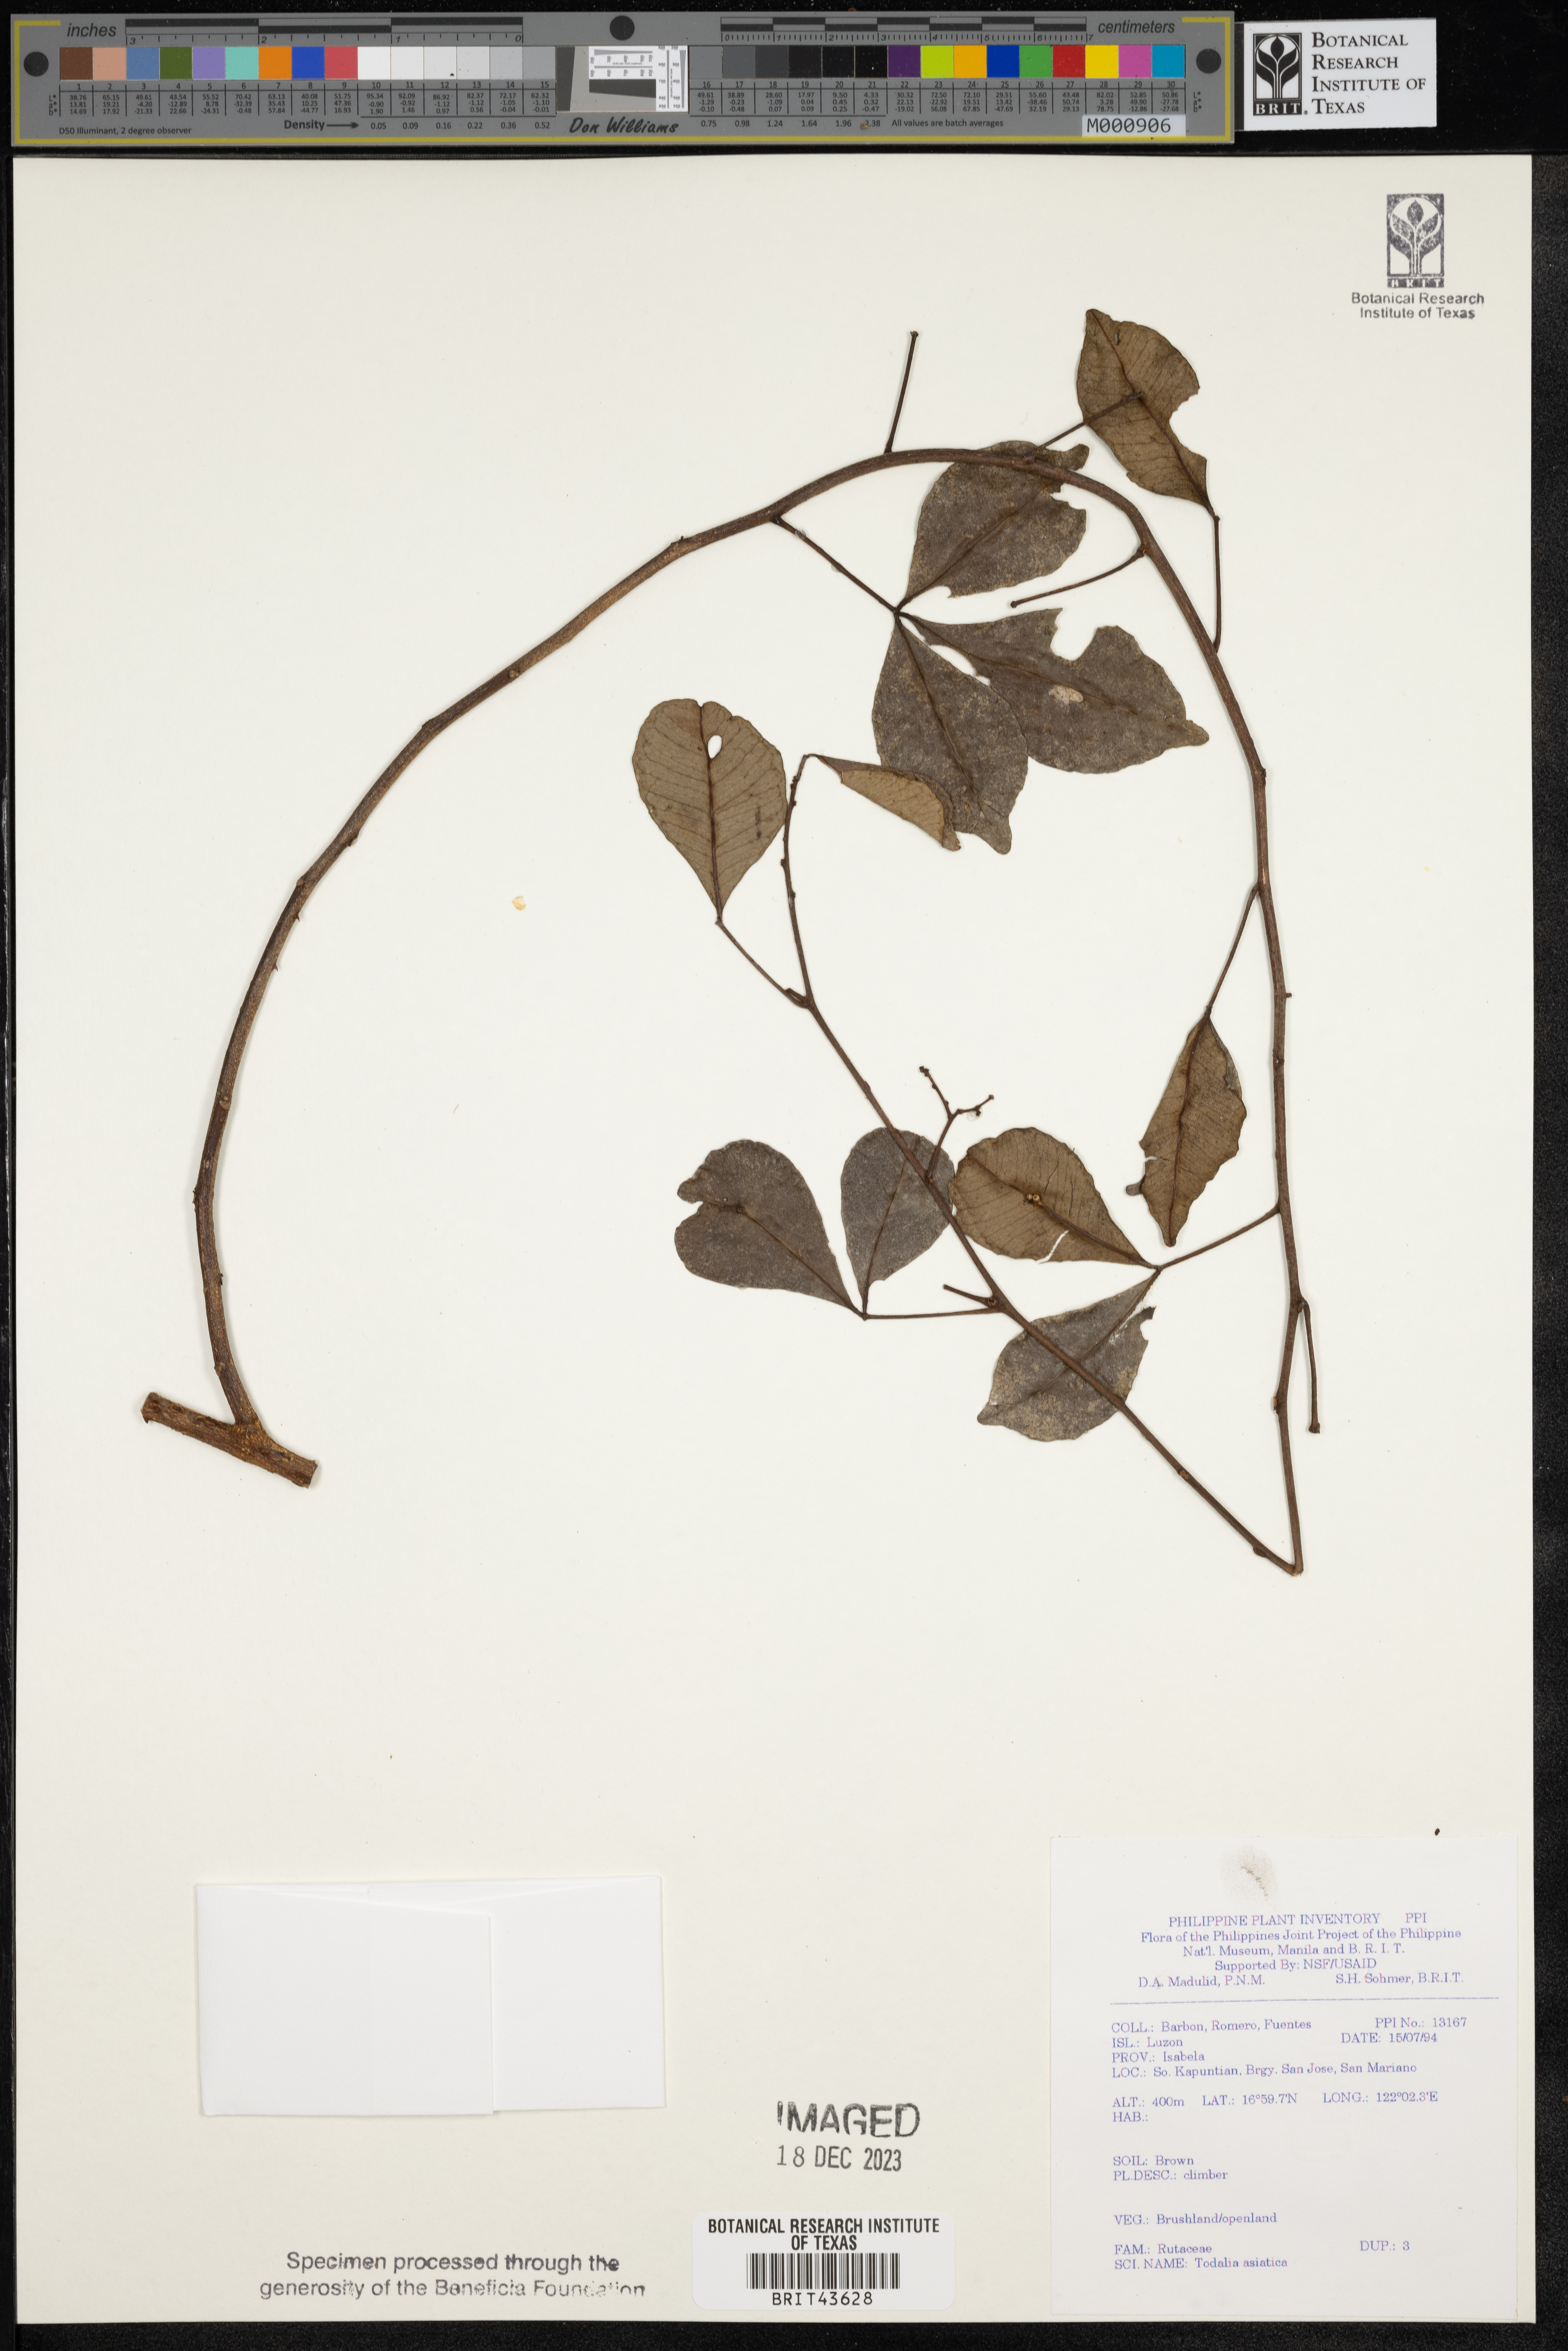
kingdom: Plantae
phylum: Tracheophyta
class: Magnoliopsida
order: Sapindales
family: Rutaceae
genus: Zanthoxylum
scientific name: Zanthoxylum asiaticum
